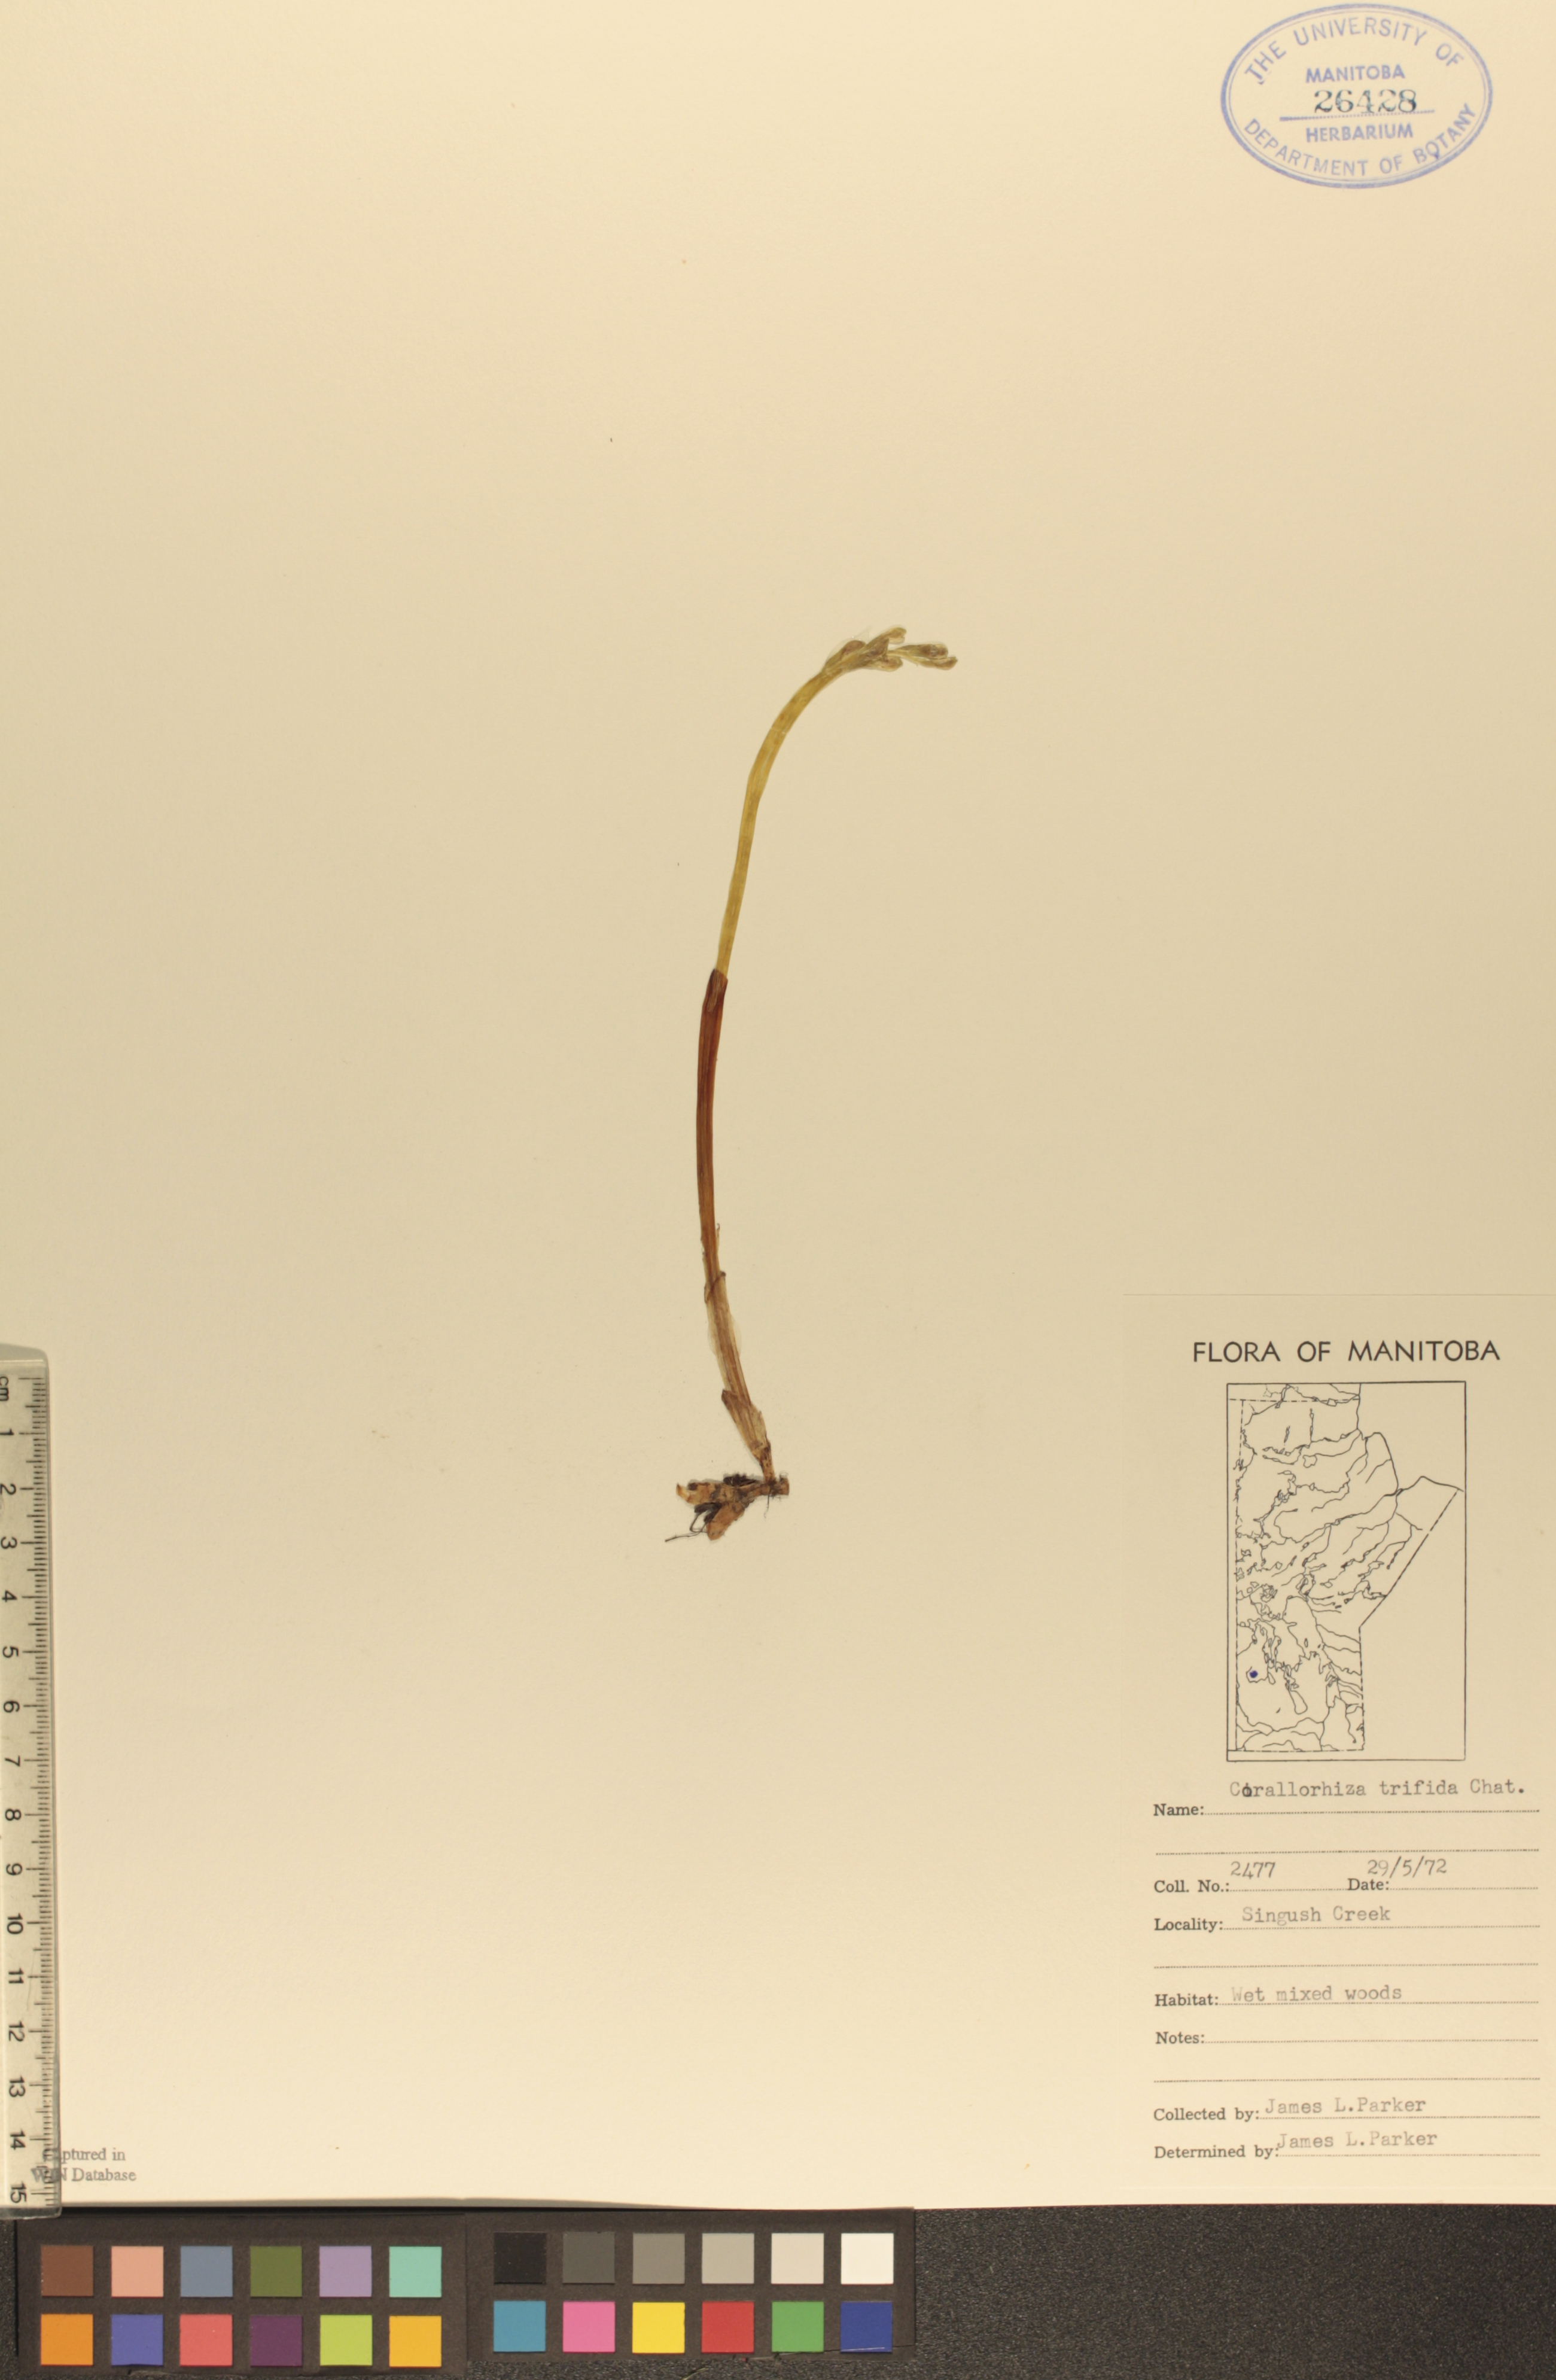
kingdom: Plantae
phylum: Tracheophyta
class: Liliopsida
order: Asparagales
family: Orchidaceae
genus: Corallorhiza
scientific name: Corallorhiza trifida
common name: Yellow coralroot
